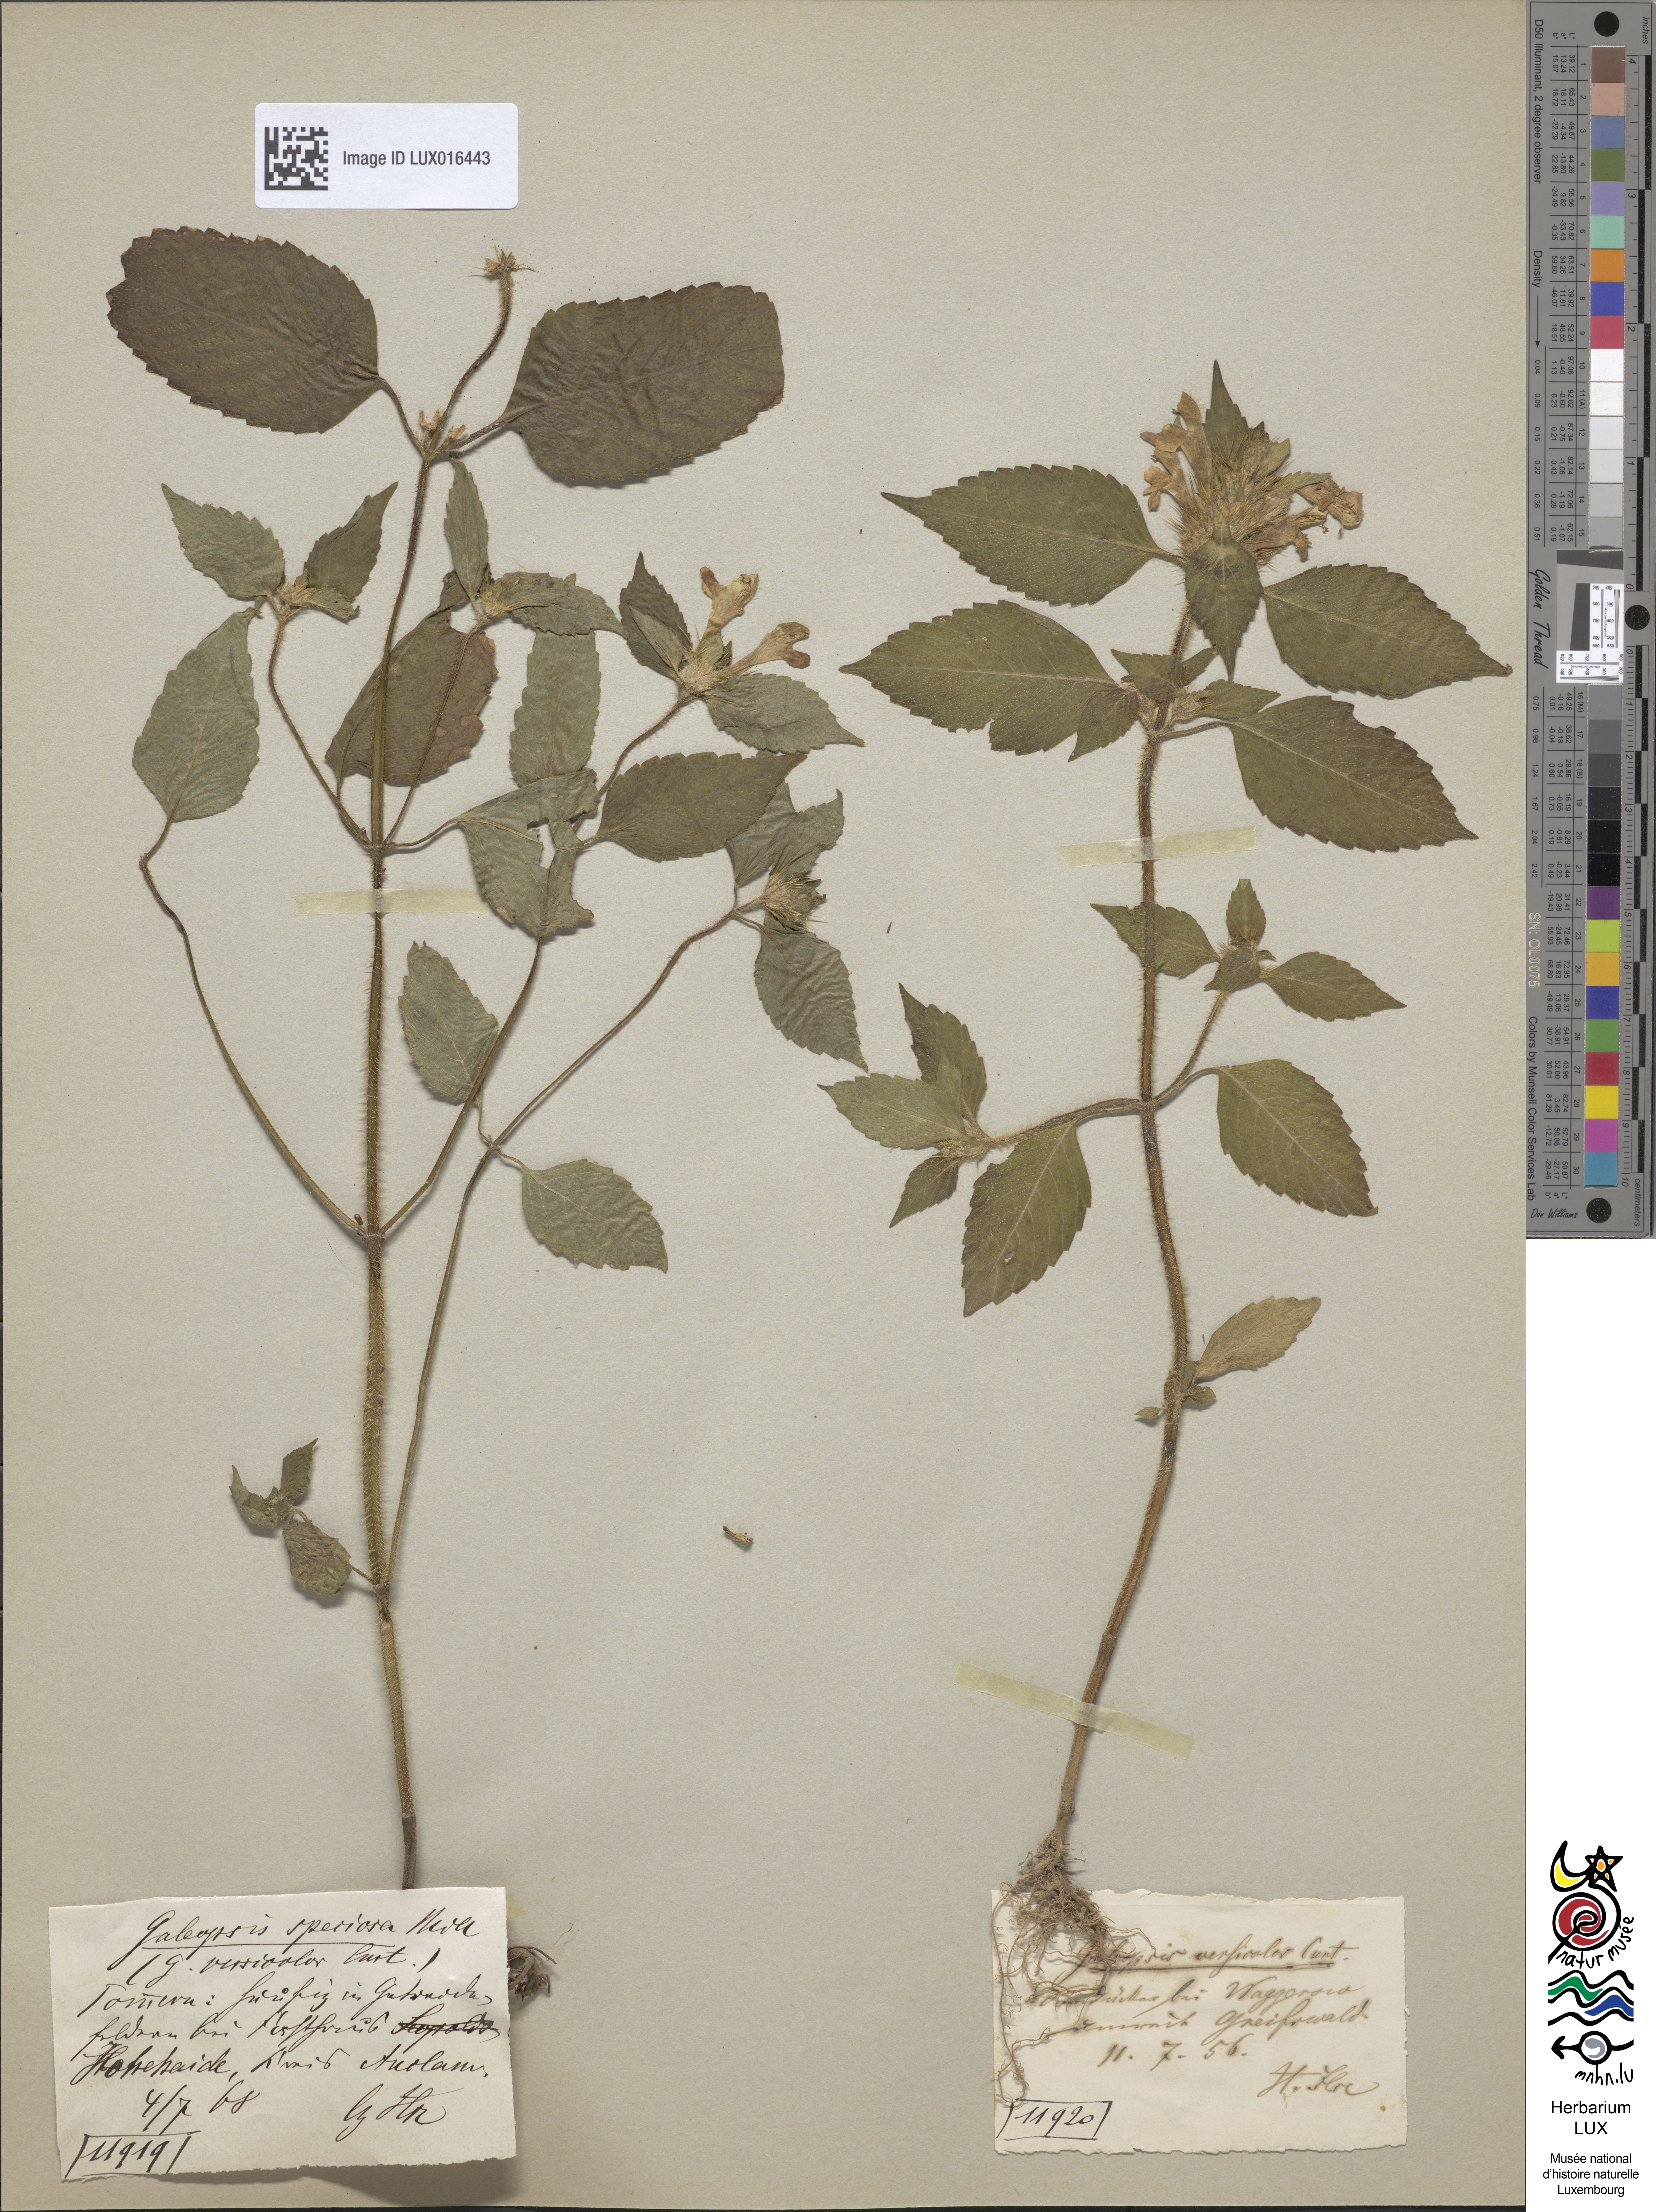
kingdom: Plantae
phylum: Tracheophyta
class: Magnoliopsida
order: Lamiales
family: Lamiaceae
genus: Galeopsis
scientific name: Galeopsis speciosa
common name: Large-flowered hemp-nettle
